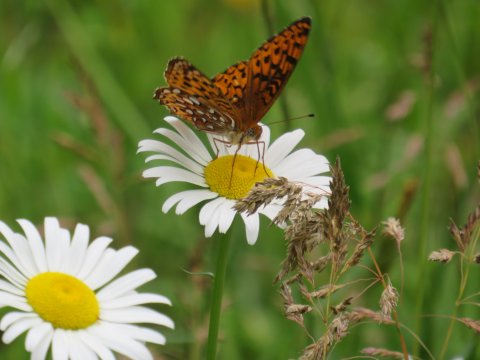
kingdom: Animalia
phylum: Arthropoda
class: Insecta
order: Lepidoptera
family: Nymphalidae
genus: Speyeria
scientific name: Speyeria atlantis
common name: Atlantis Fritillary
